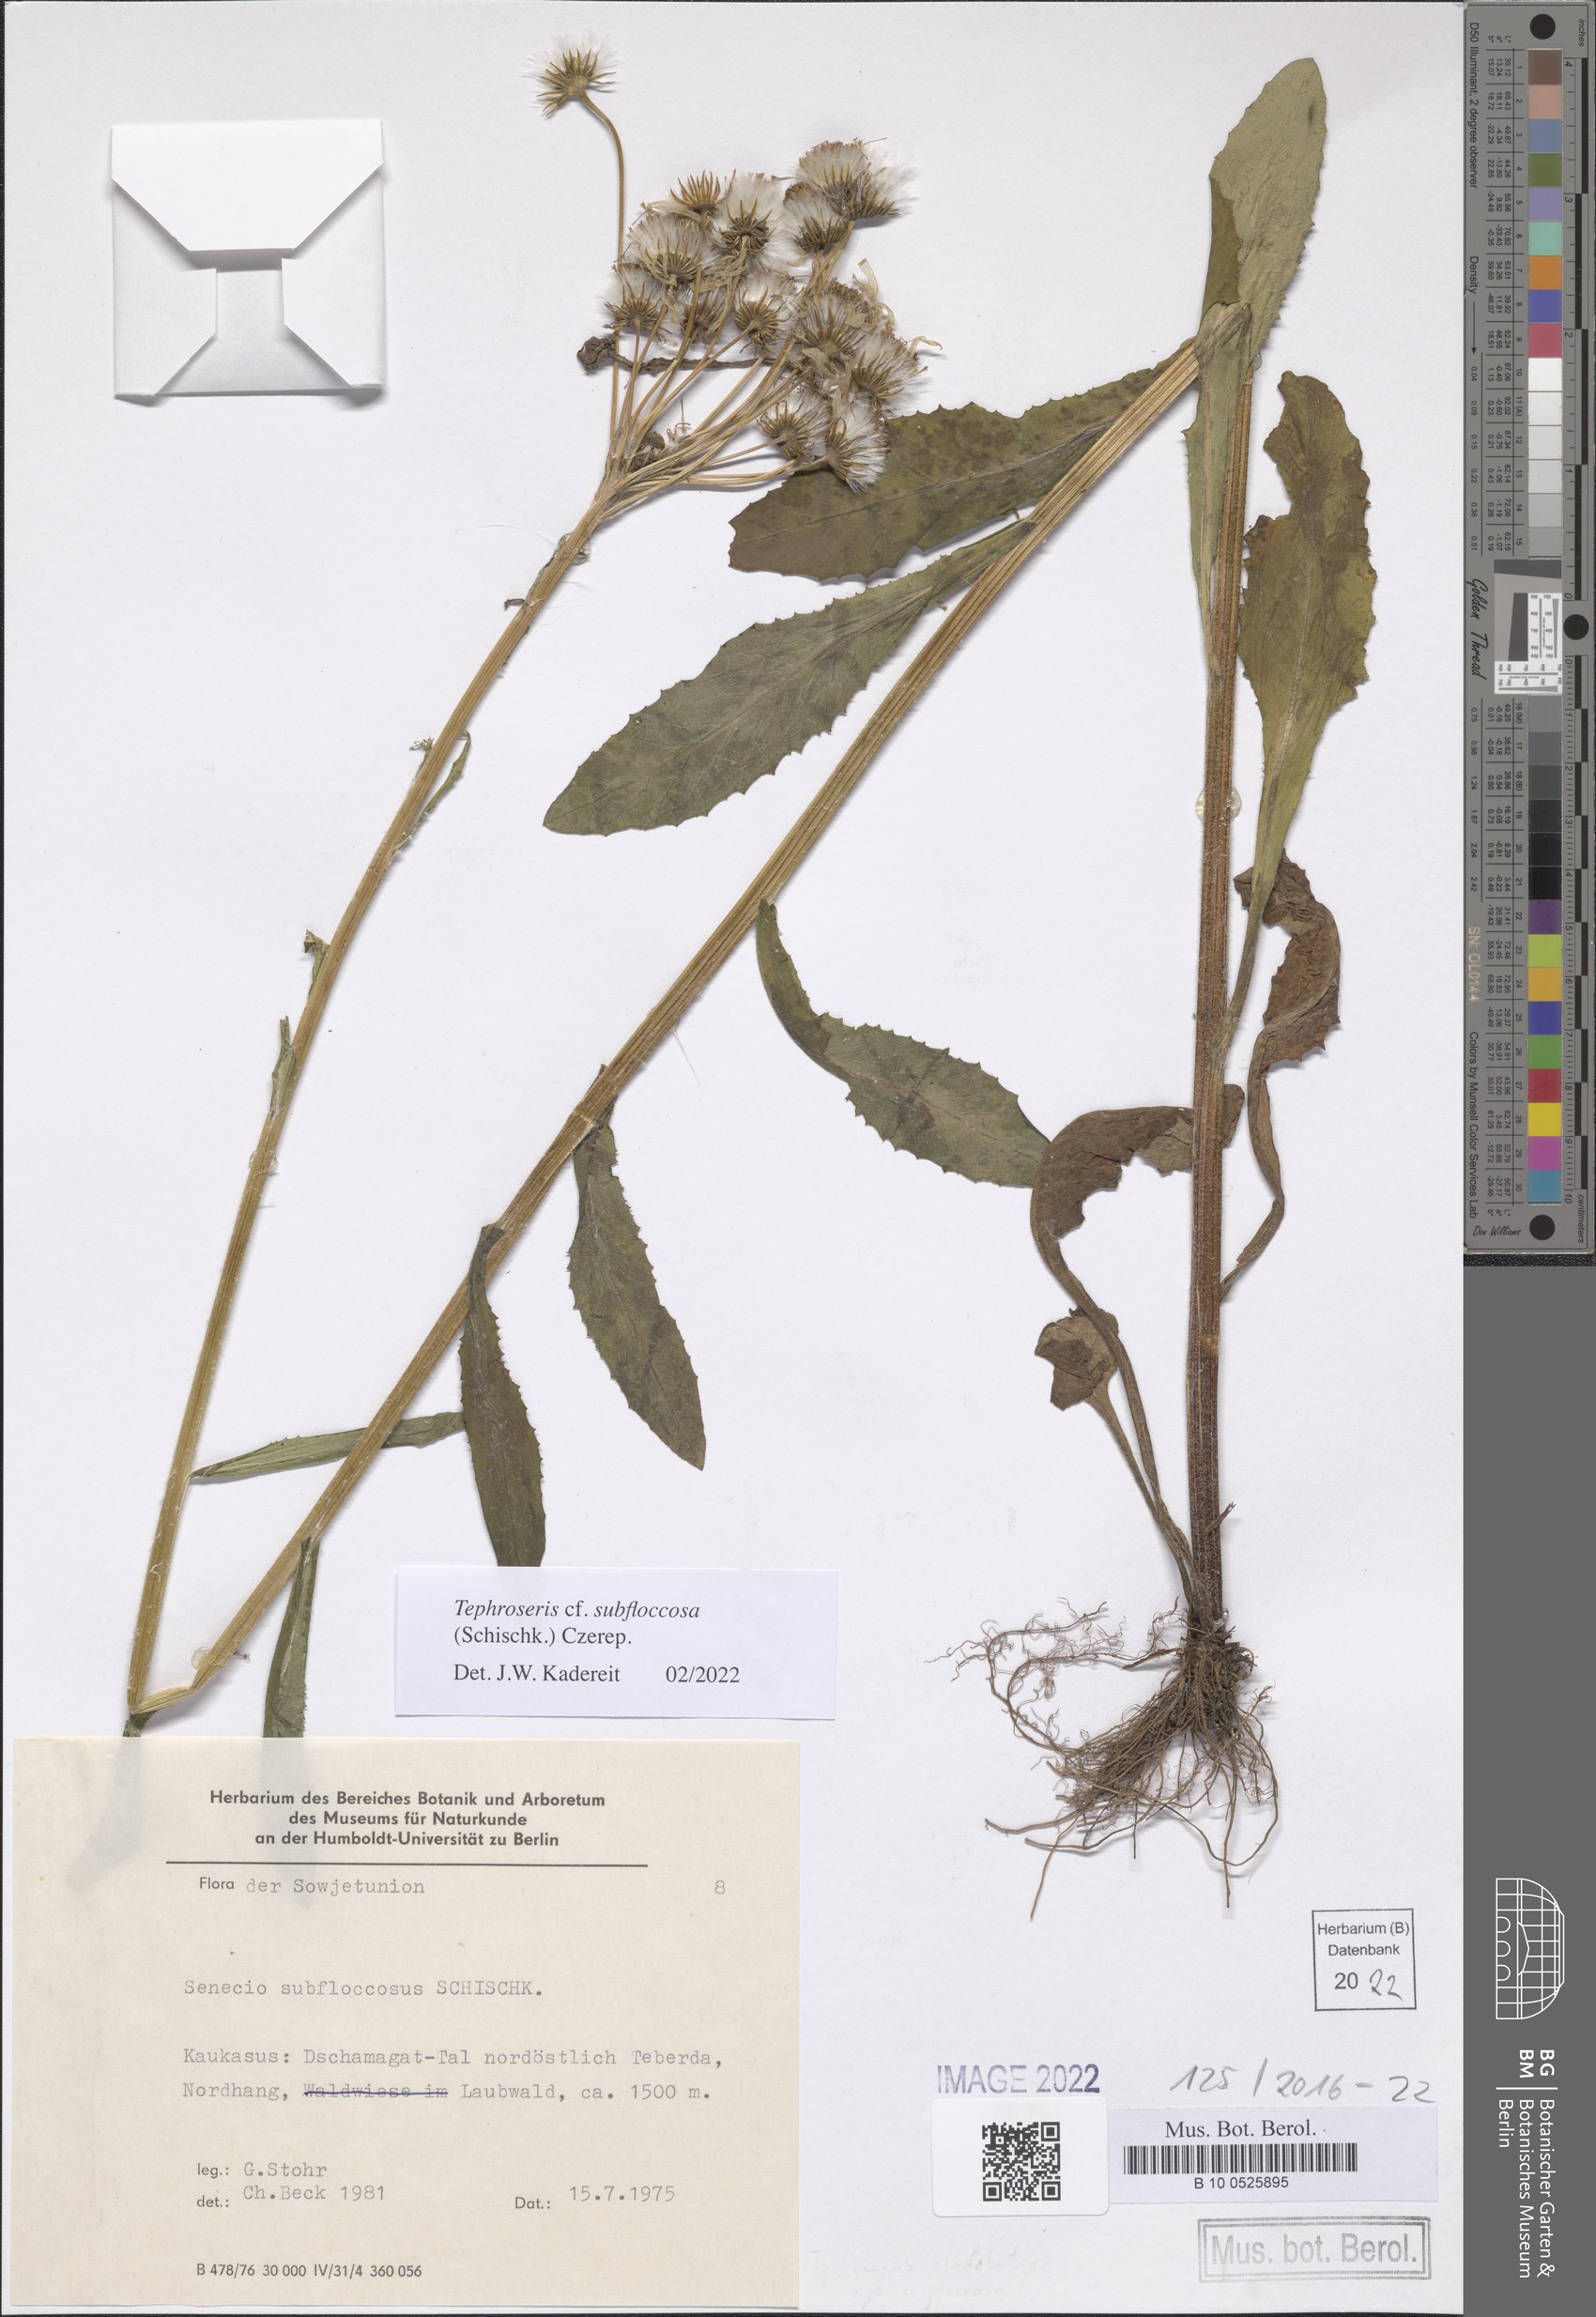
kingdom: Plantae
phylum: Tracheophyta
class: Magnoliopsida
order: Asterales
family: Asteraceae
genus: Tephroseris
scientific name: Tephroseris cladobotrys
